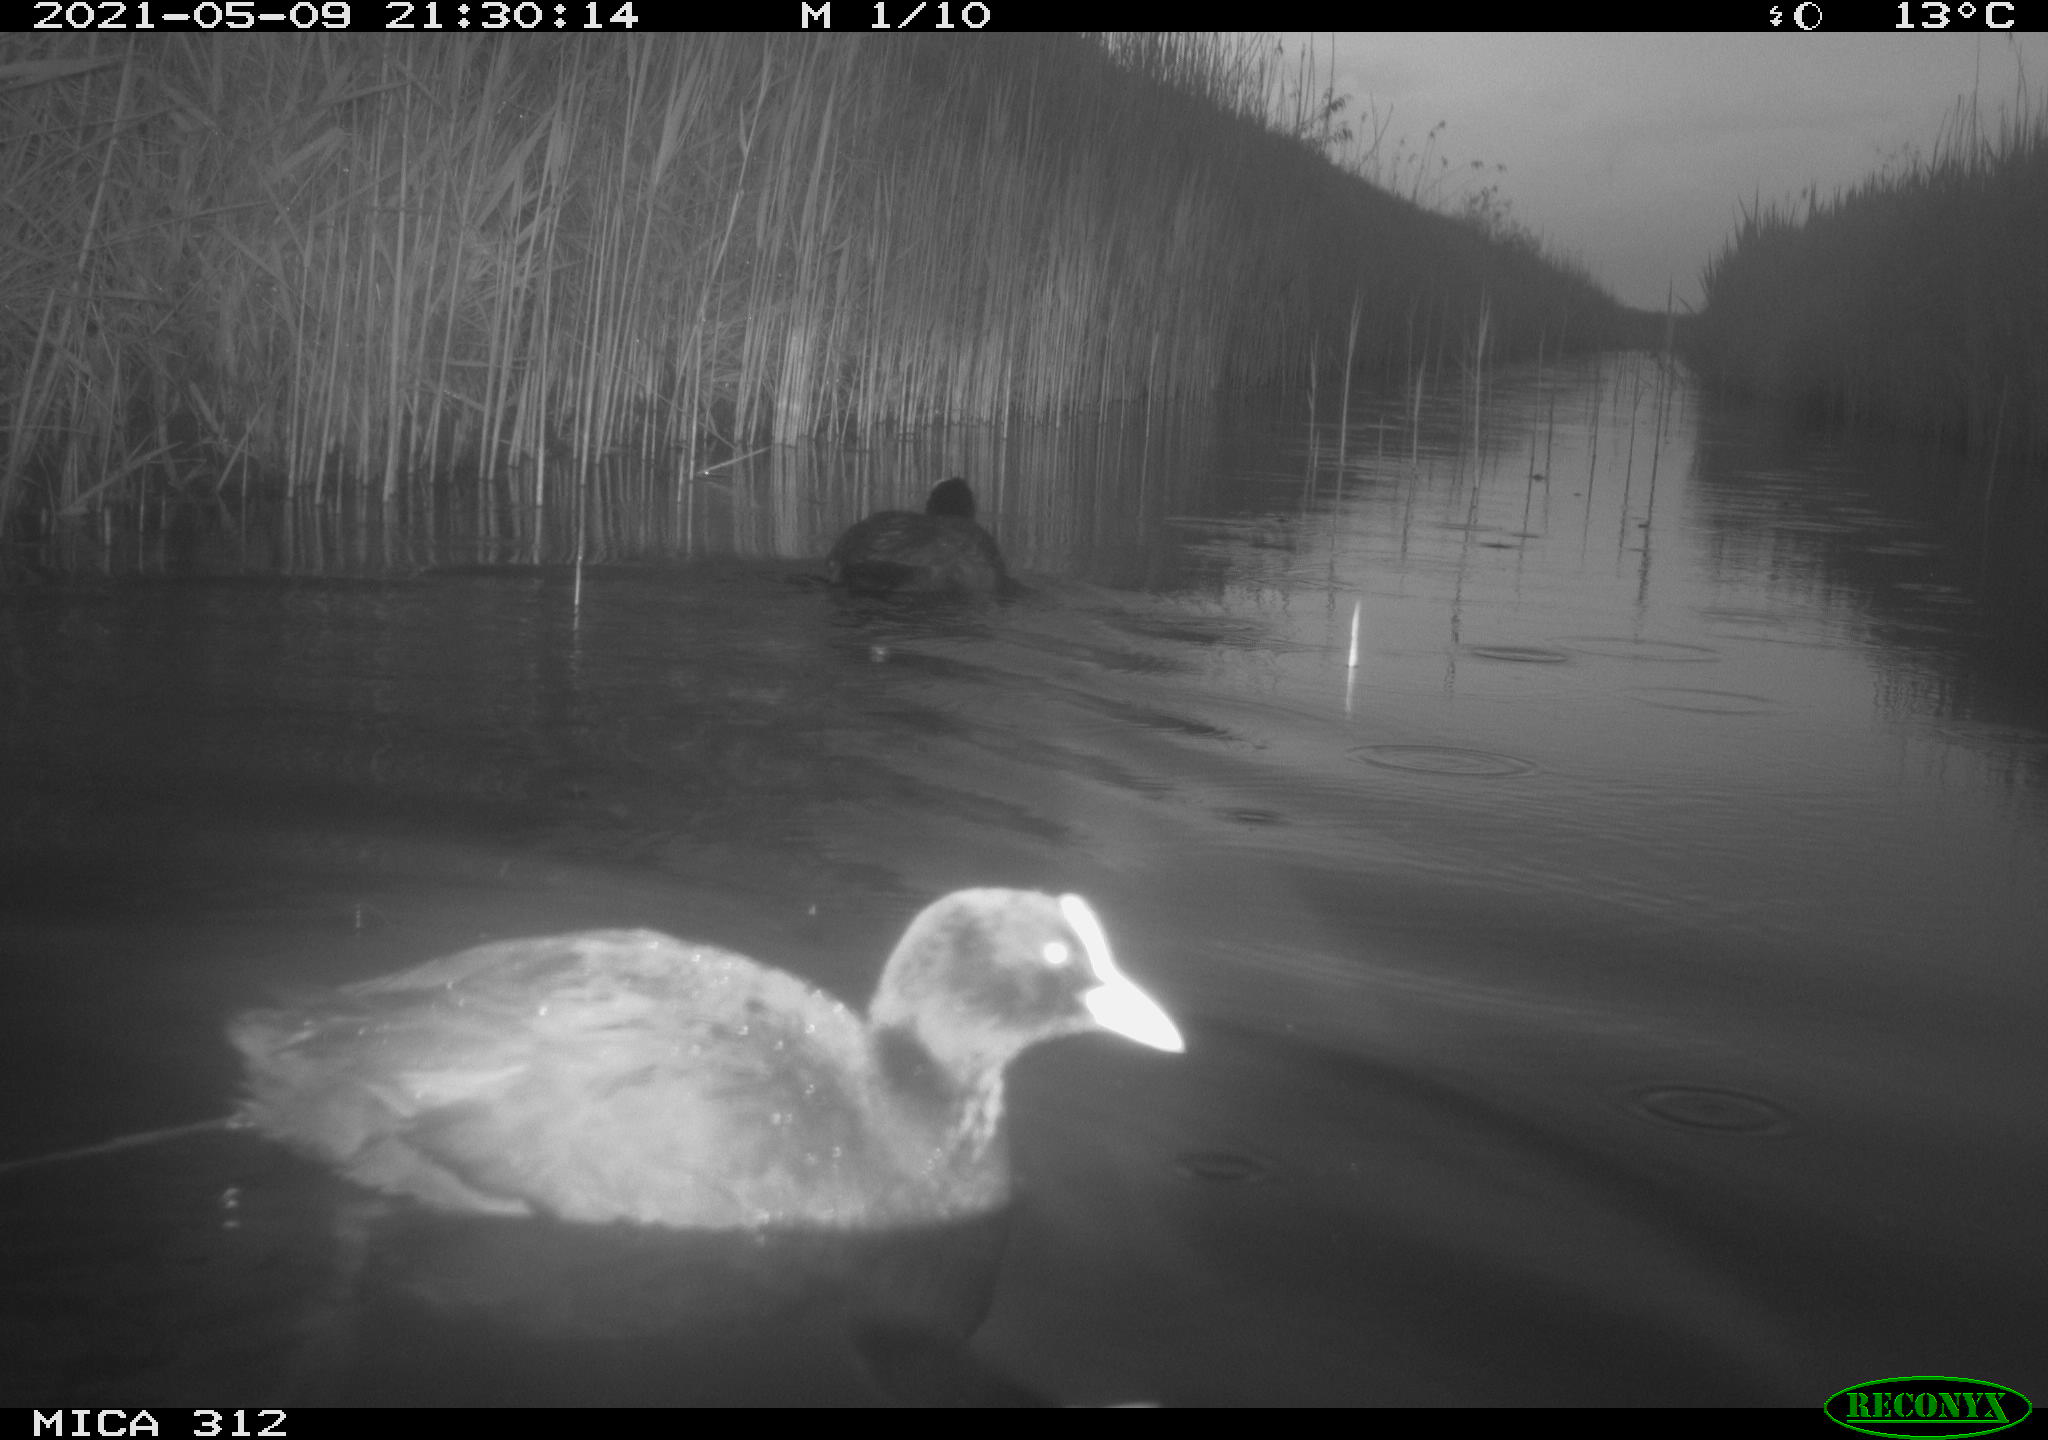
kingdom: Animalia
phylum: Chordata
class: Aves
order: Gruiformes
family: Rallidae
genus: Fulica
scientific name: Fulica atra
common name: Eurasian coot
